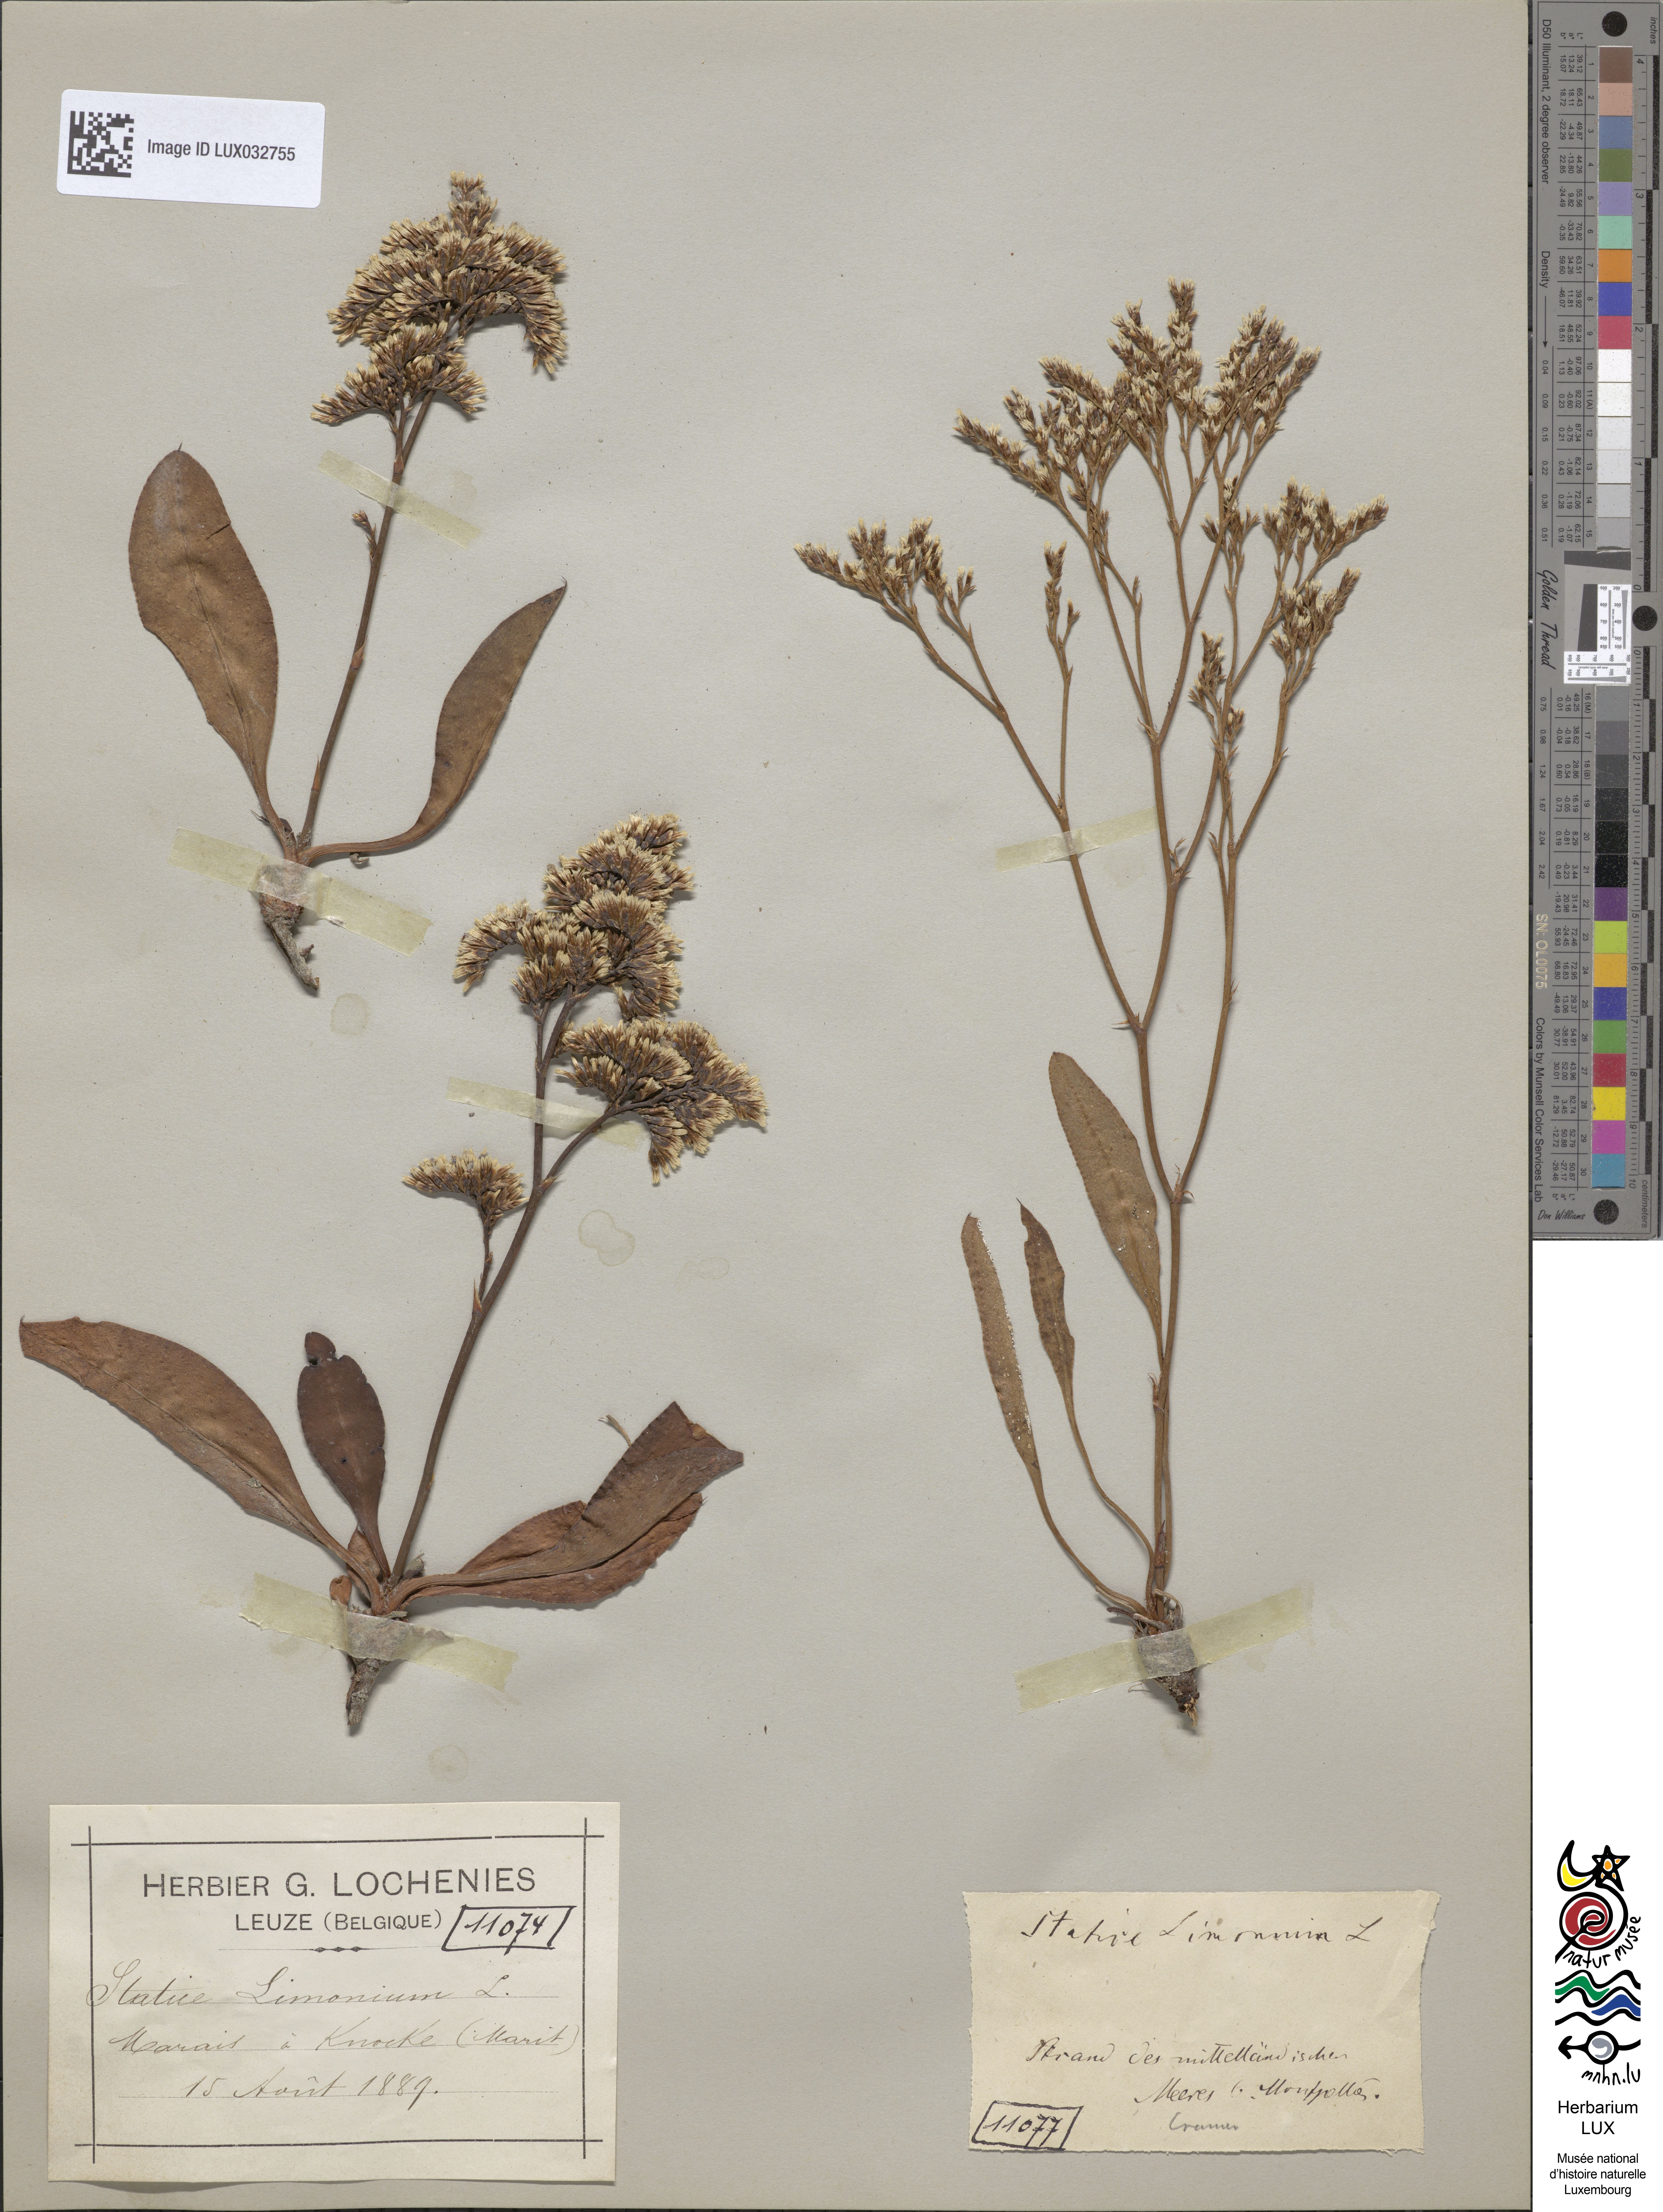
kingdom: Plantae
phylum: Tracheophyta
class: Magnoliopsida
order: Caryophyllales
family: Plumbaginaceae
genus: Limonium
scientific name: Limonium vulgare
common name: Common sea-lavender
